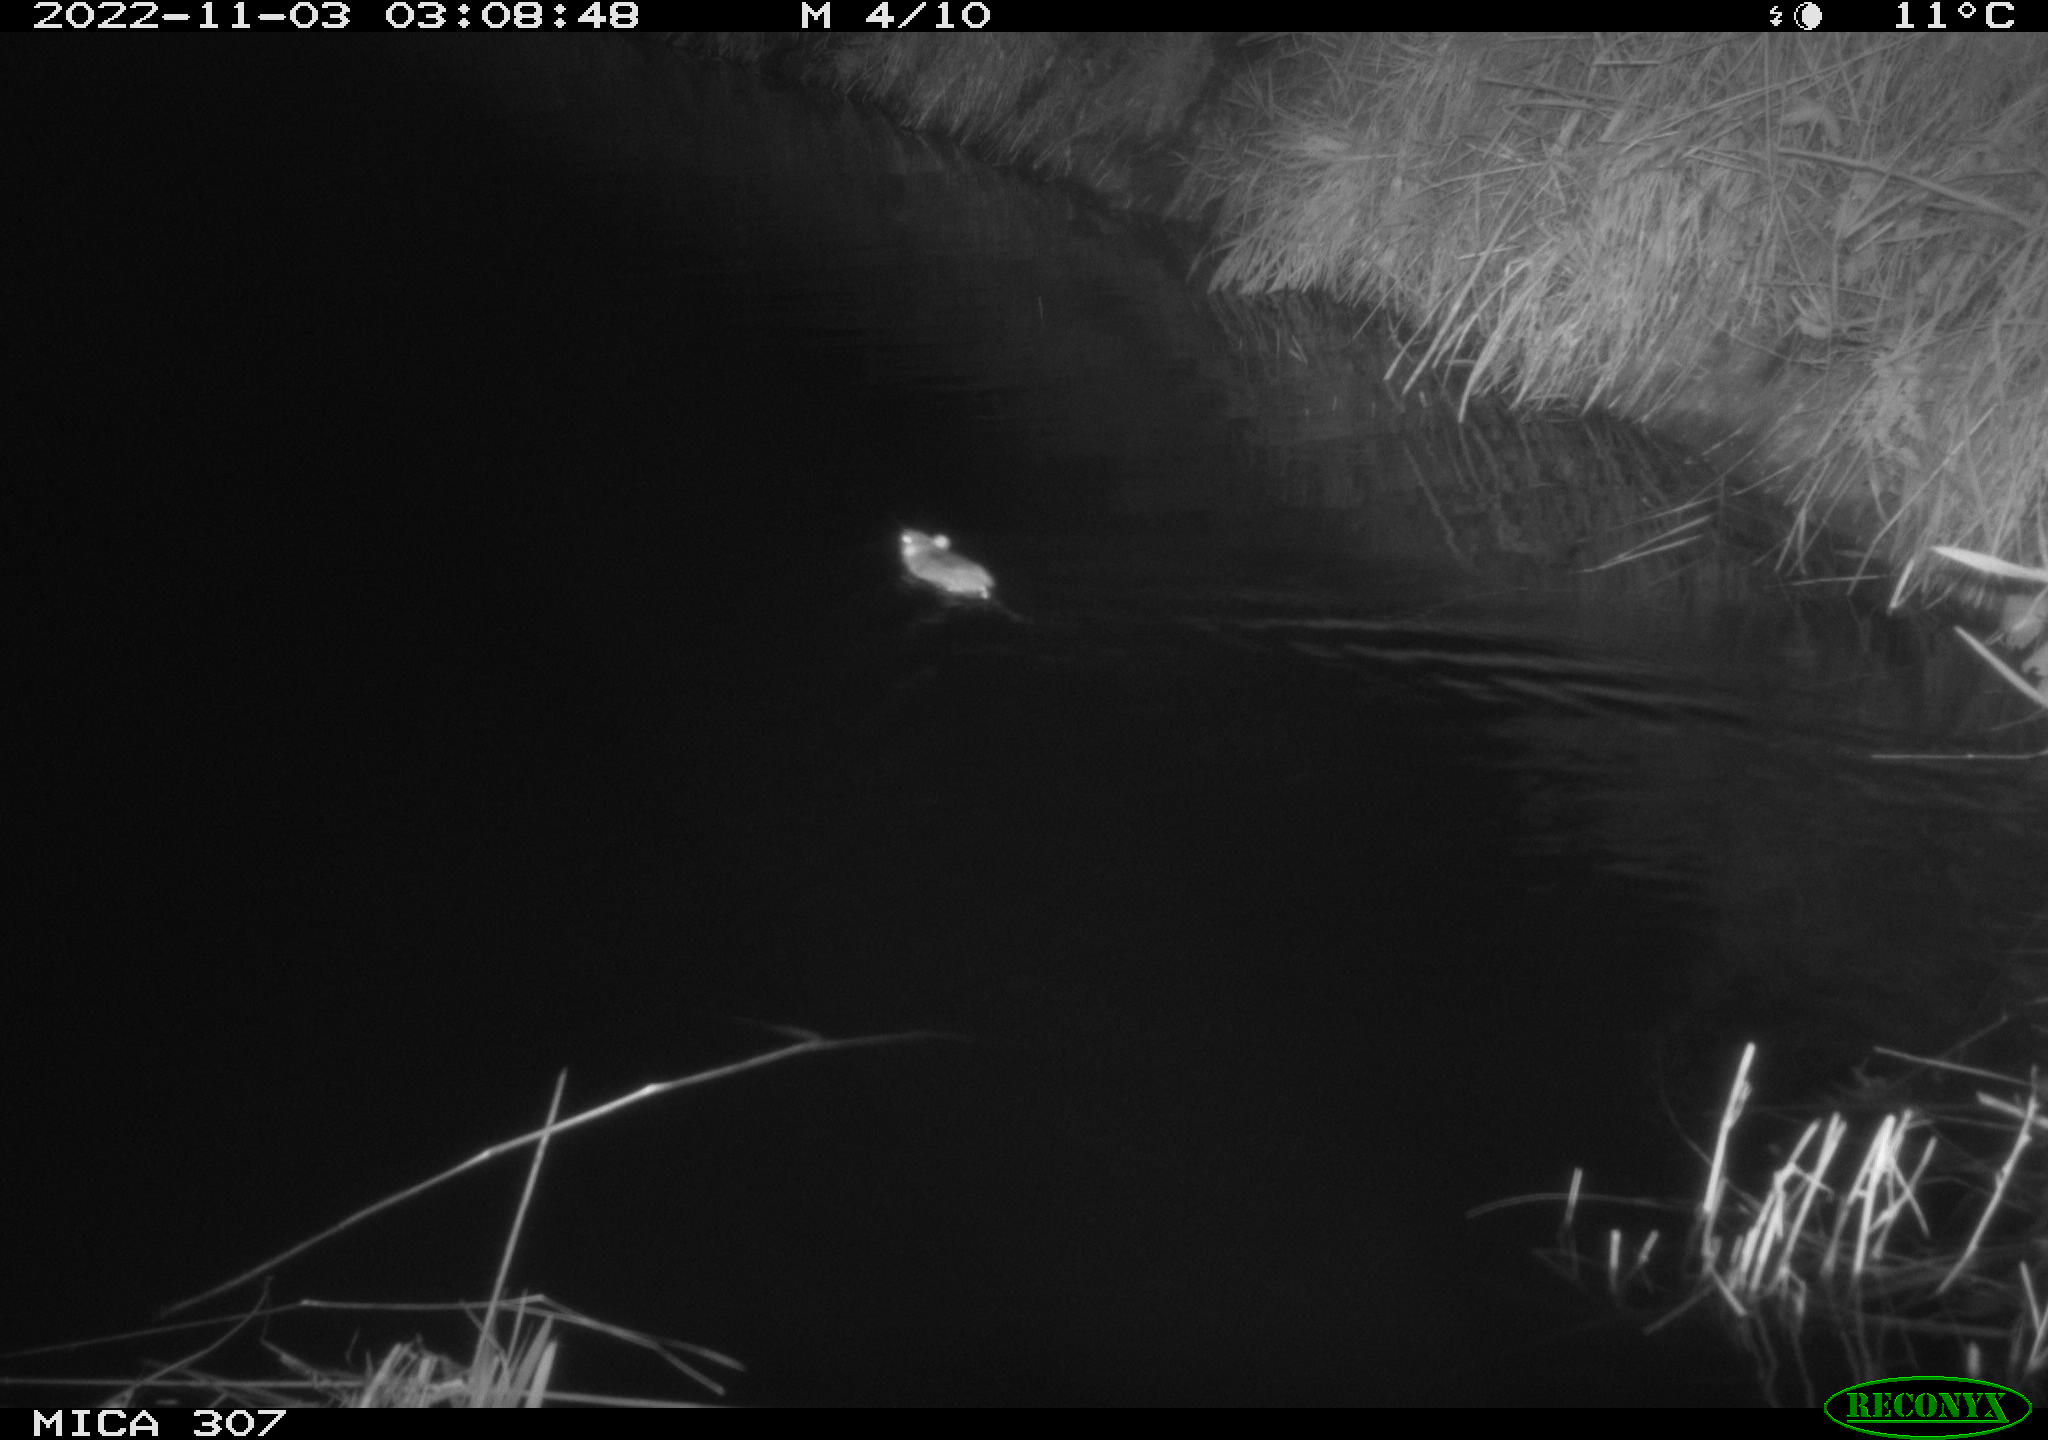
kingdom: Animalia
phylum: Chordata
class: Mammalia
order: Rodentia
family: Muridae
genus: Rattus
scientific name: Rattus norvegicus
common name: Brown rat
